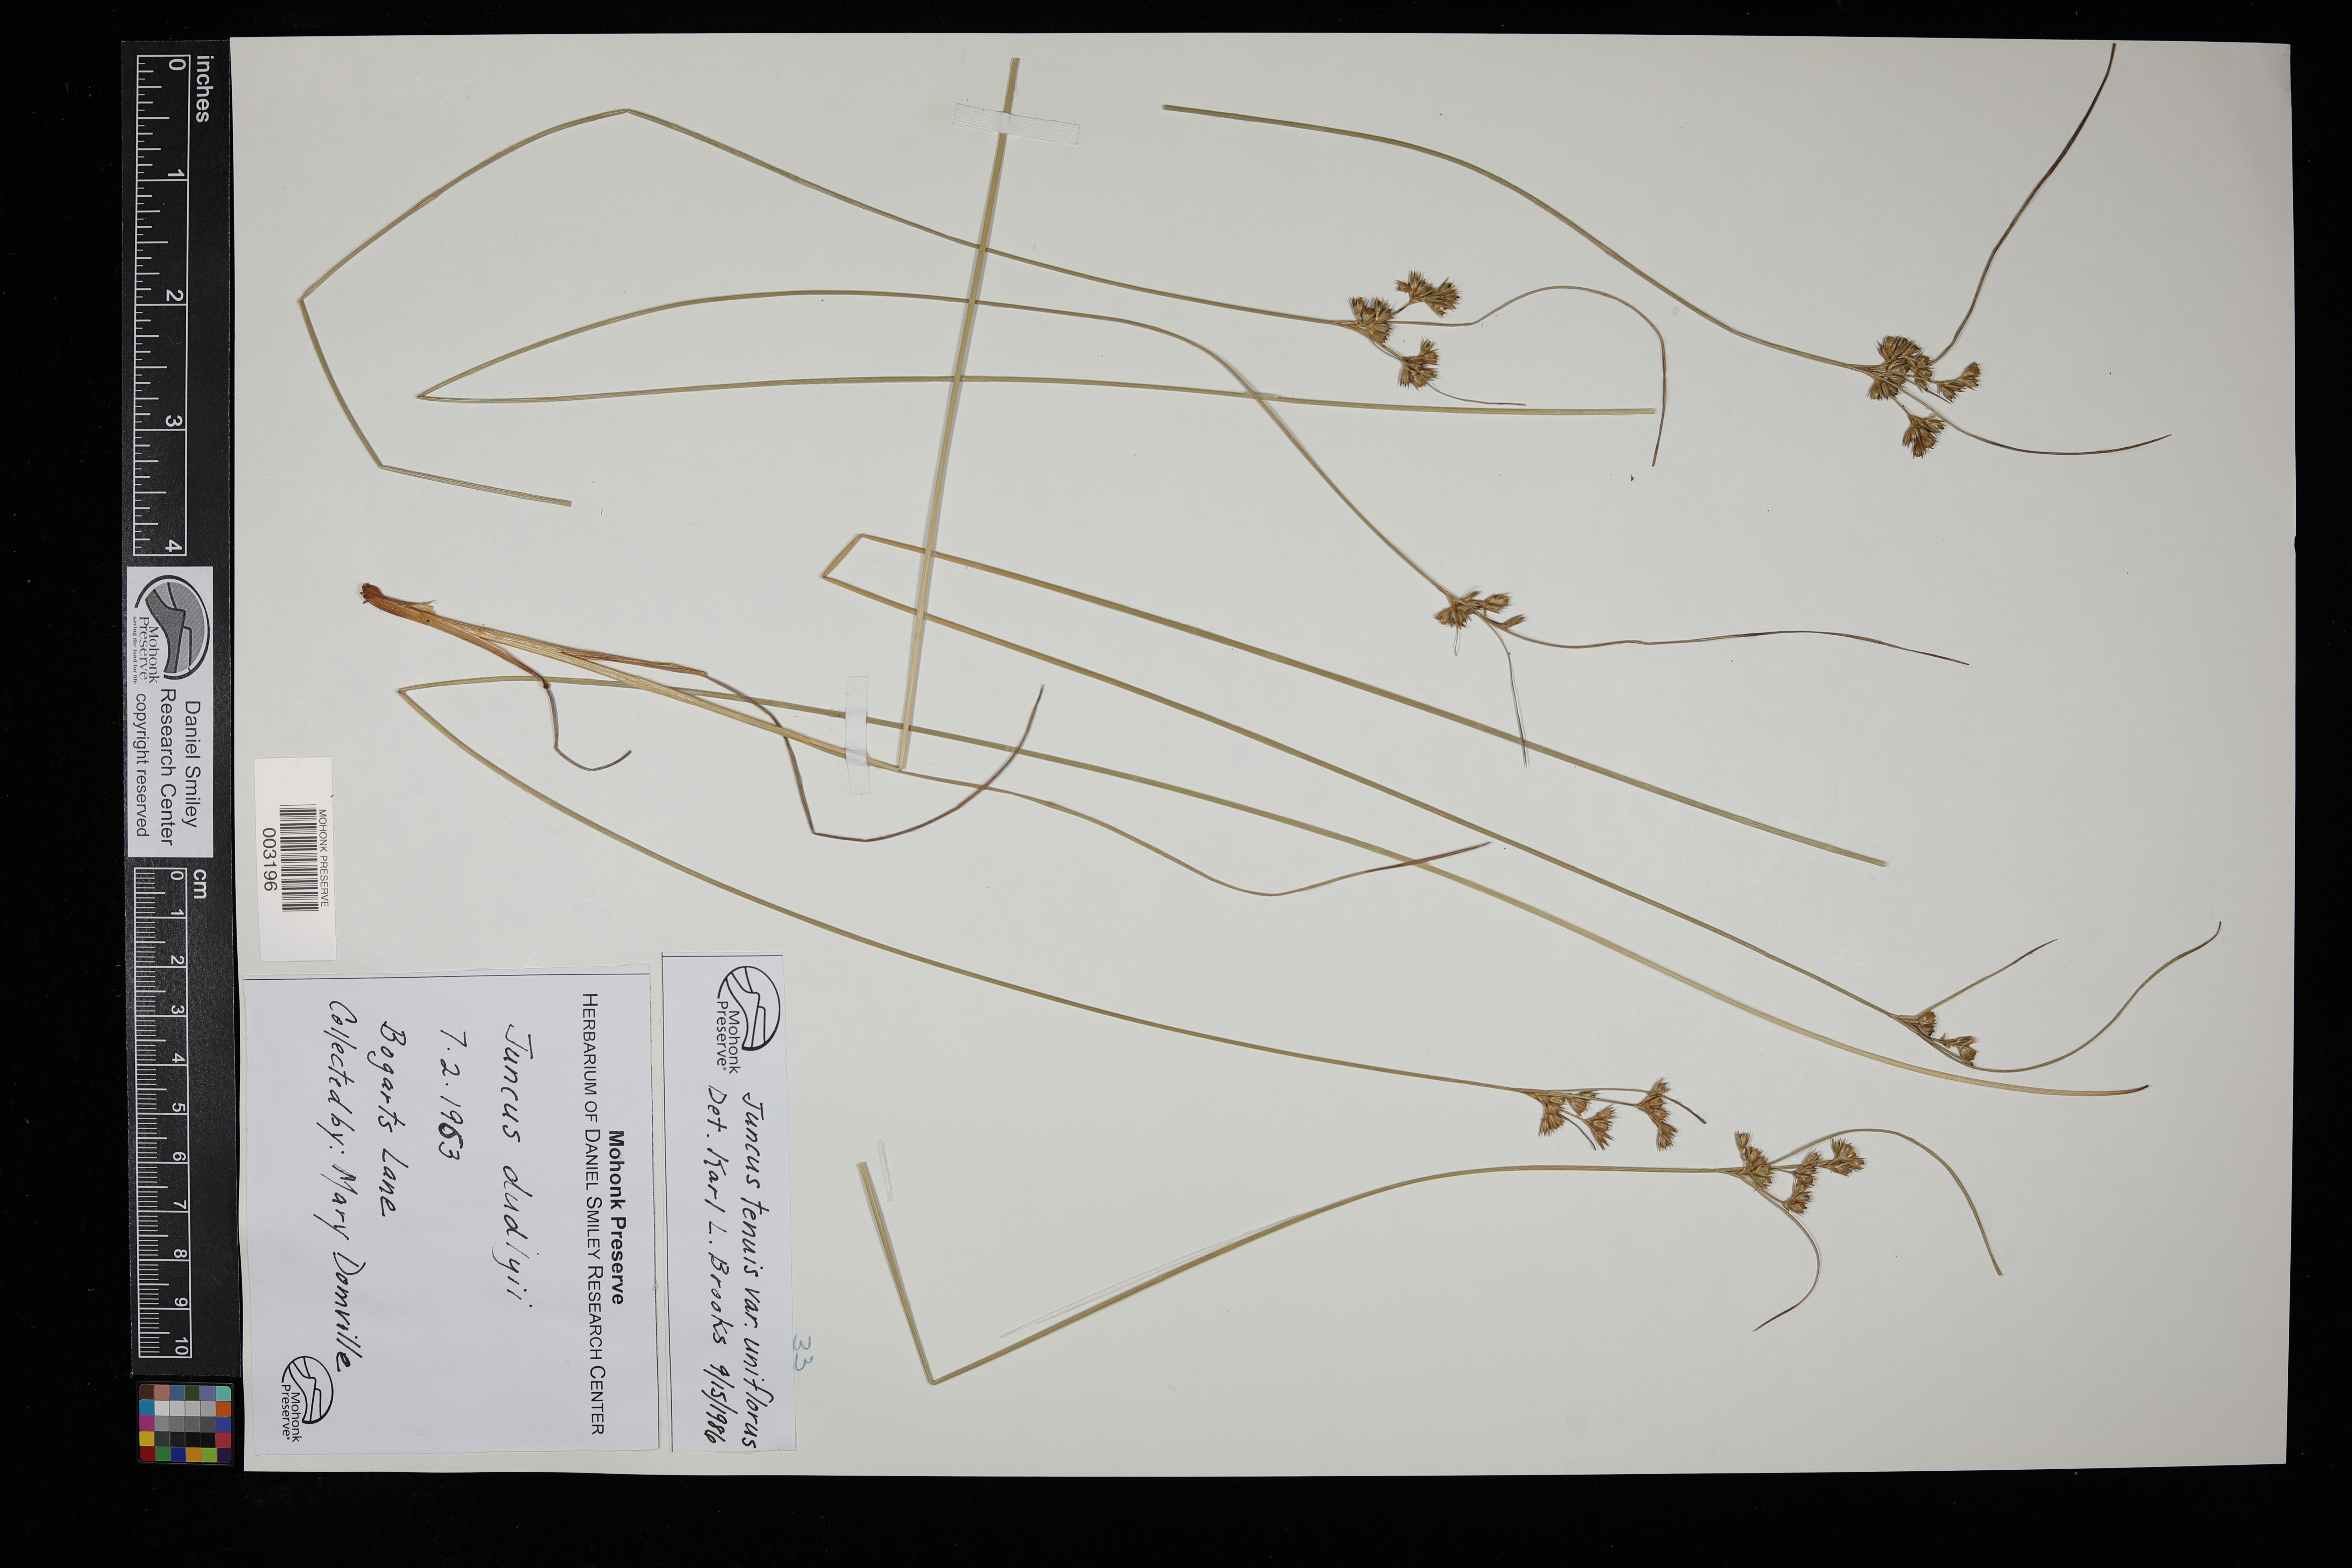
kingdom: Plantae
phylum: Tracheophyta
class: Liliopsida
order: Poales
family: Juncaceae
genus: Juncus
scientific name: Juncus dudleyi
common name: Dudley's rush
